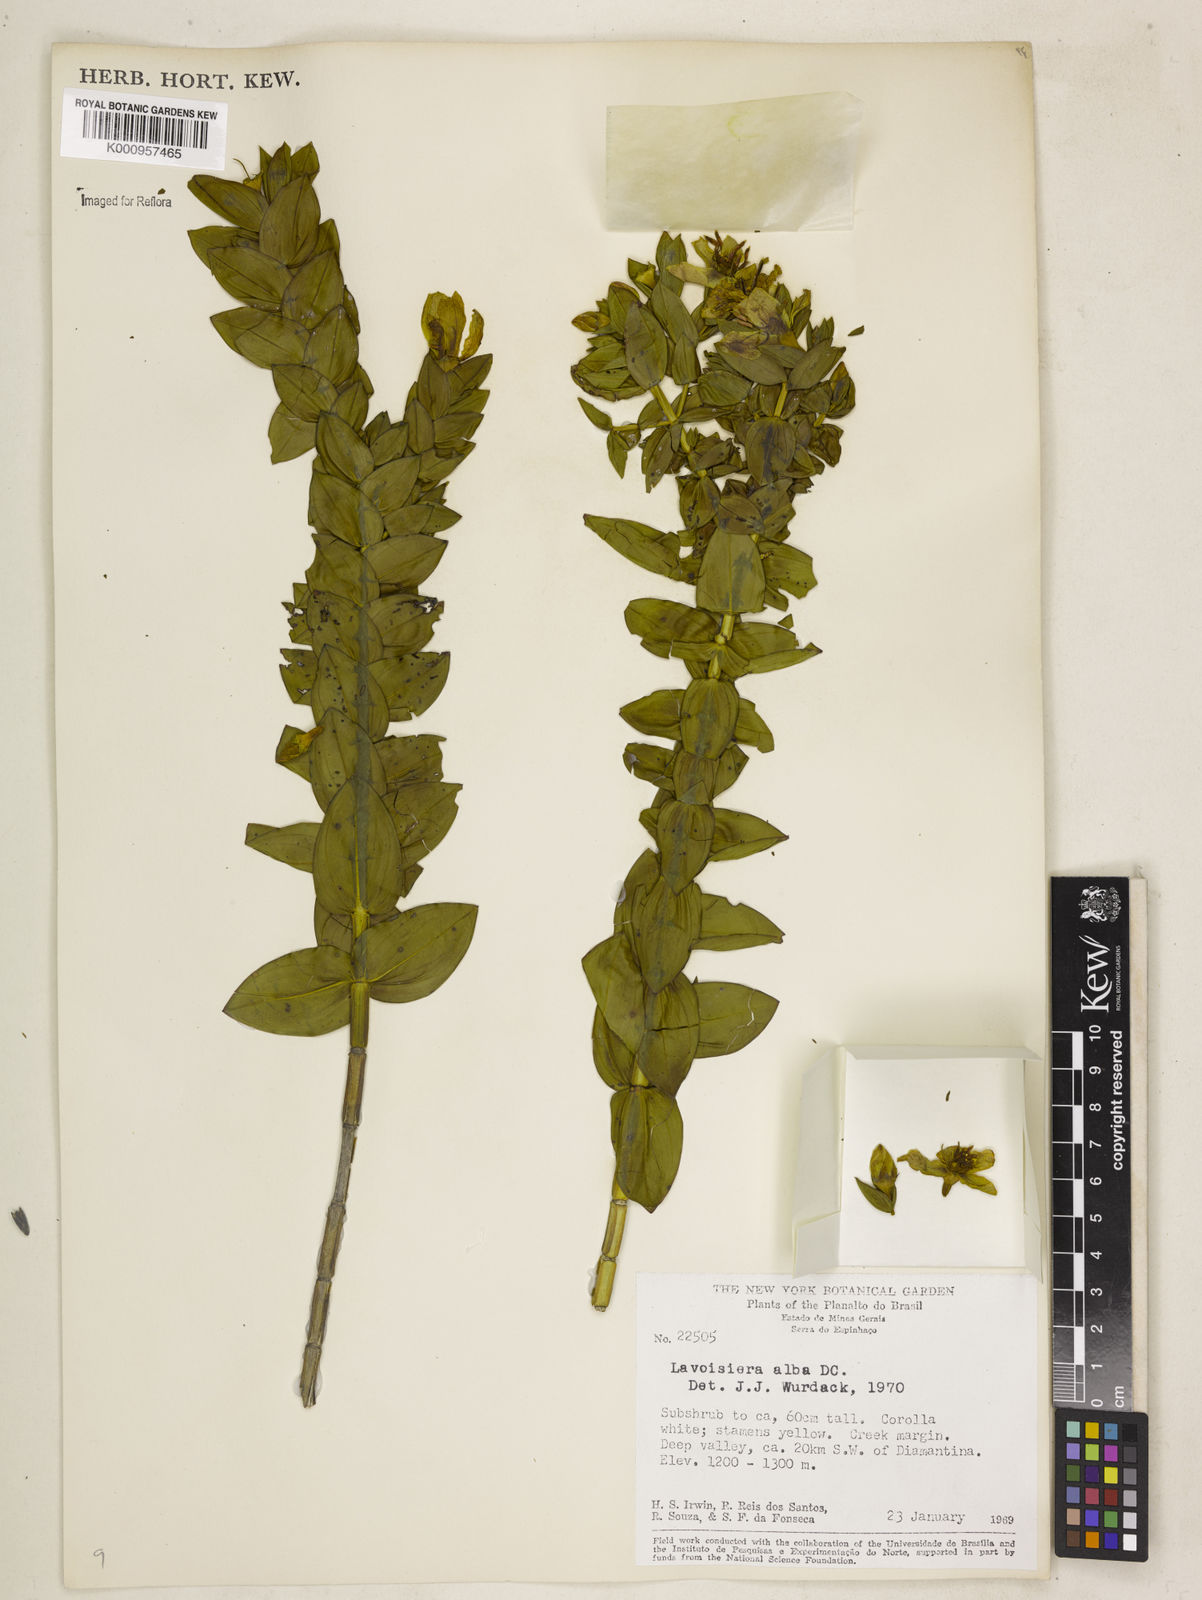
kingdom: Plantae
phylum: Tracheophyta
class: Magnoliopsida
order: Myrtales
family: Melastomataceae
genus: Microlicia
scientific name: Microlicia alba
